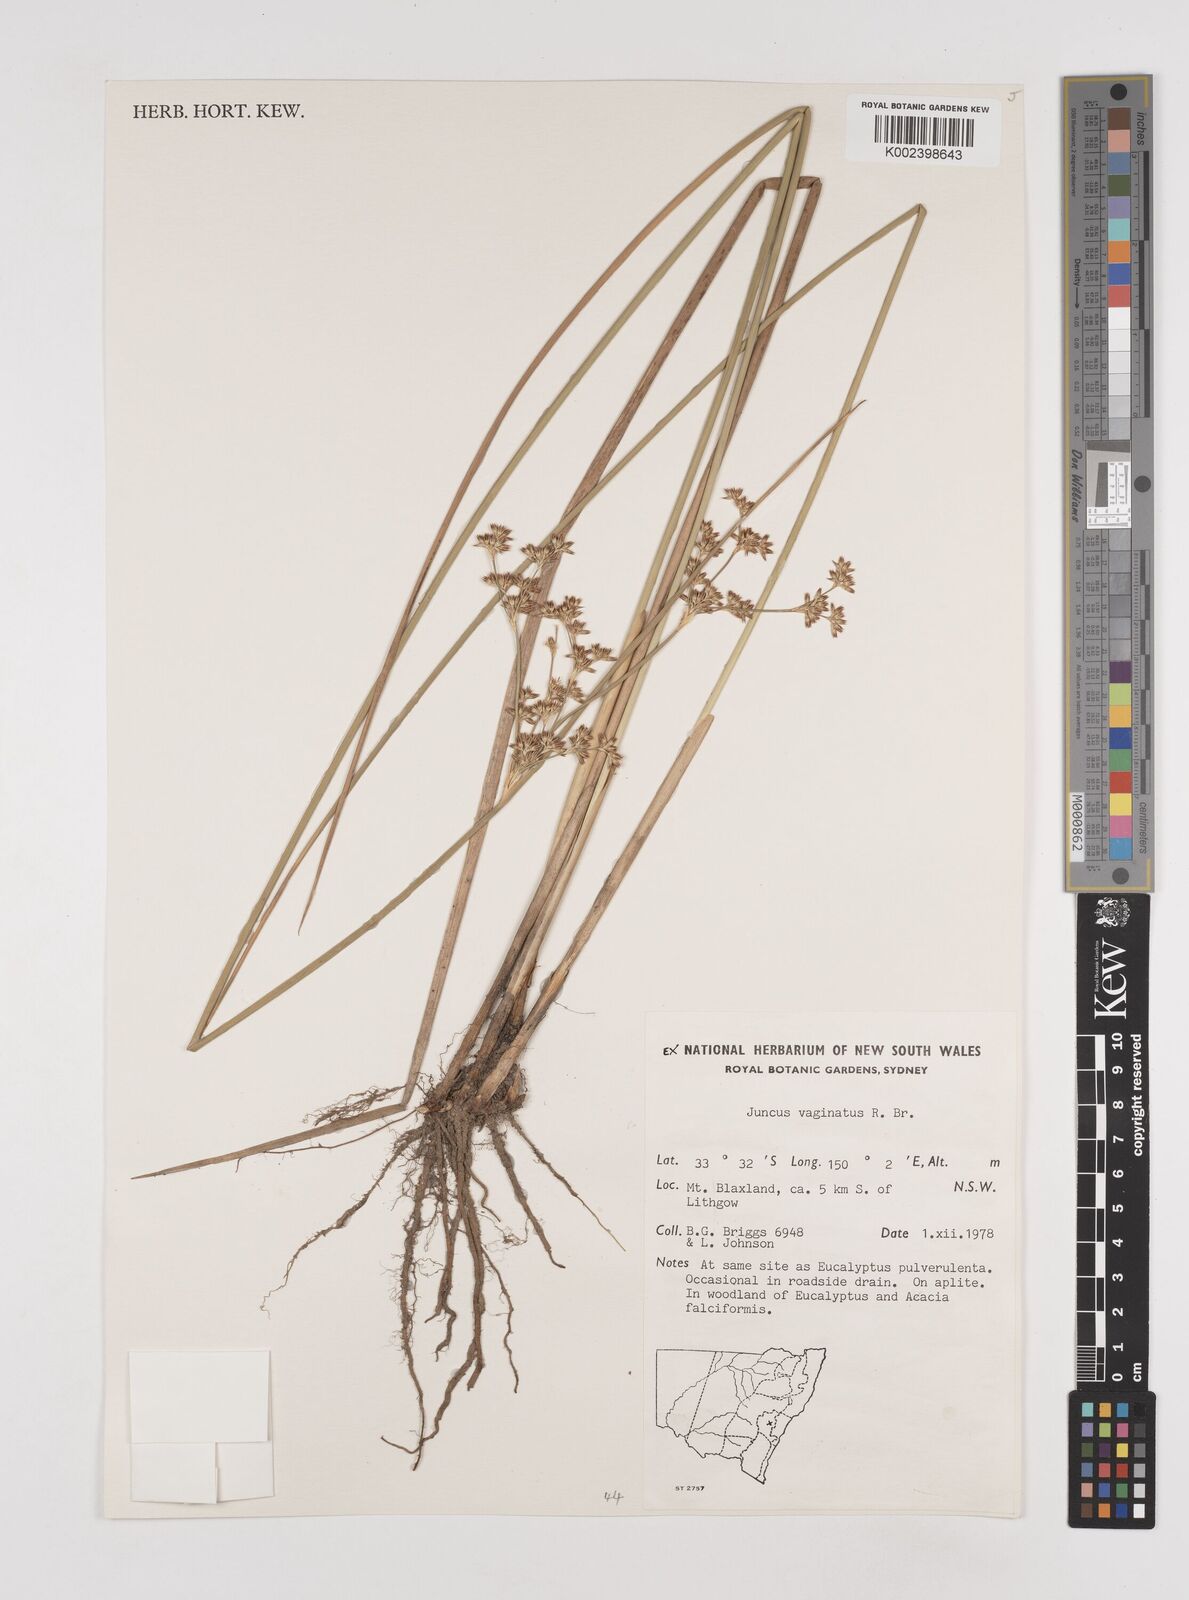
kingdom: Plantae
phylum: Tracheophyta
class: Liliopsida
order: Poales
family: Juncaceae
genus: Juncus
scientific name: Juncus vaginatus
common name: Clustered rush
